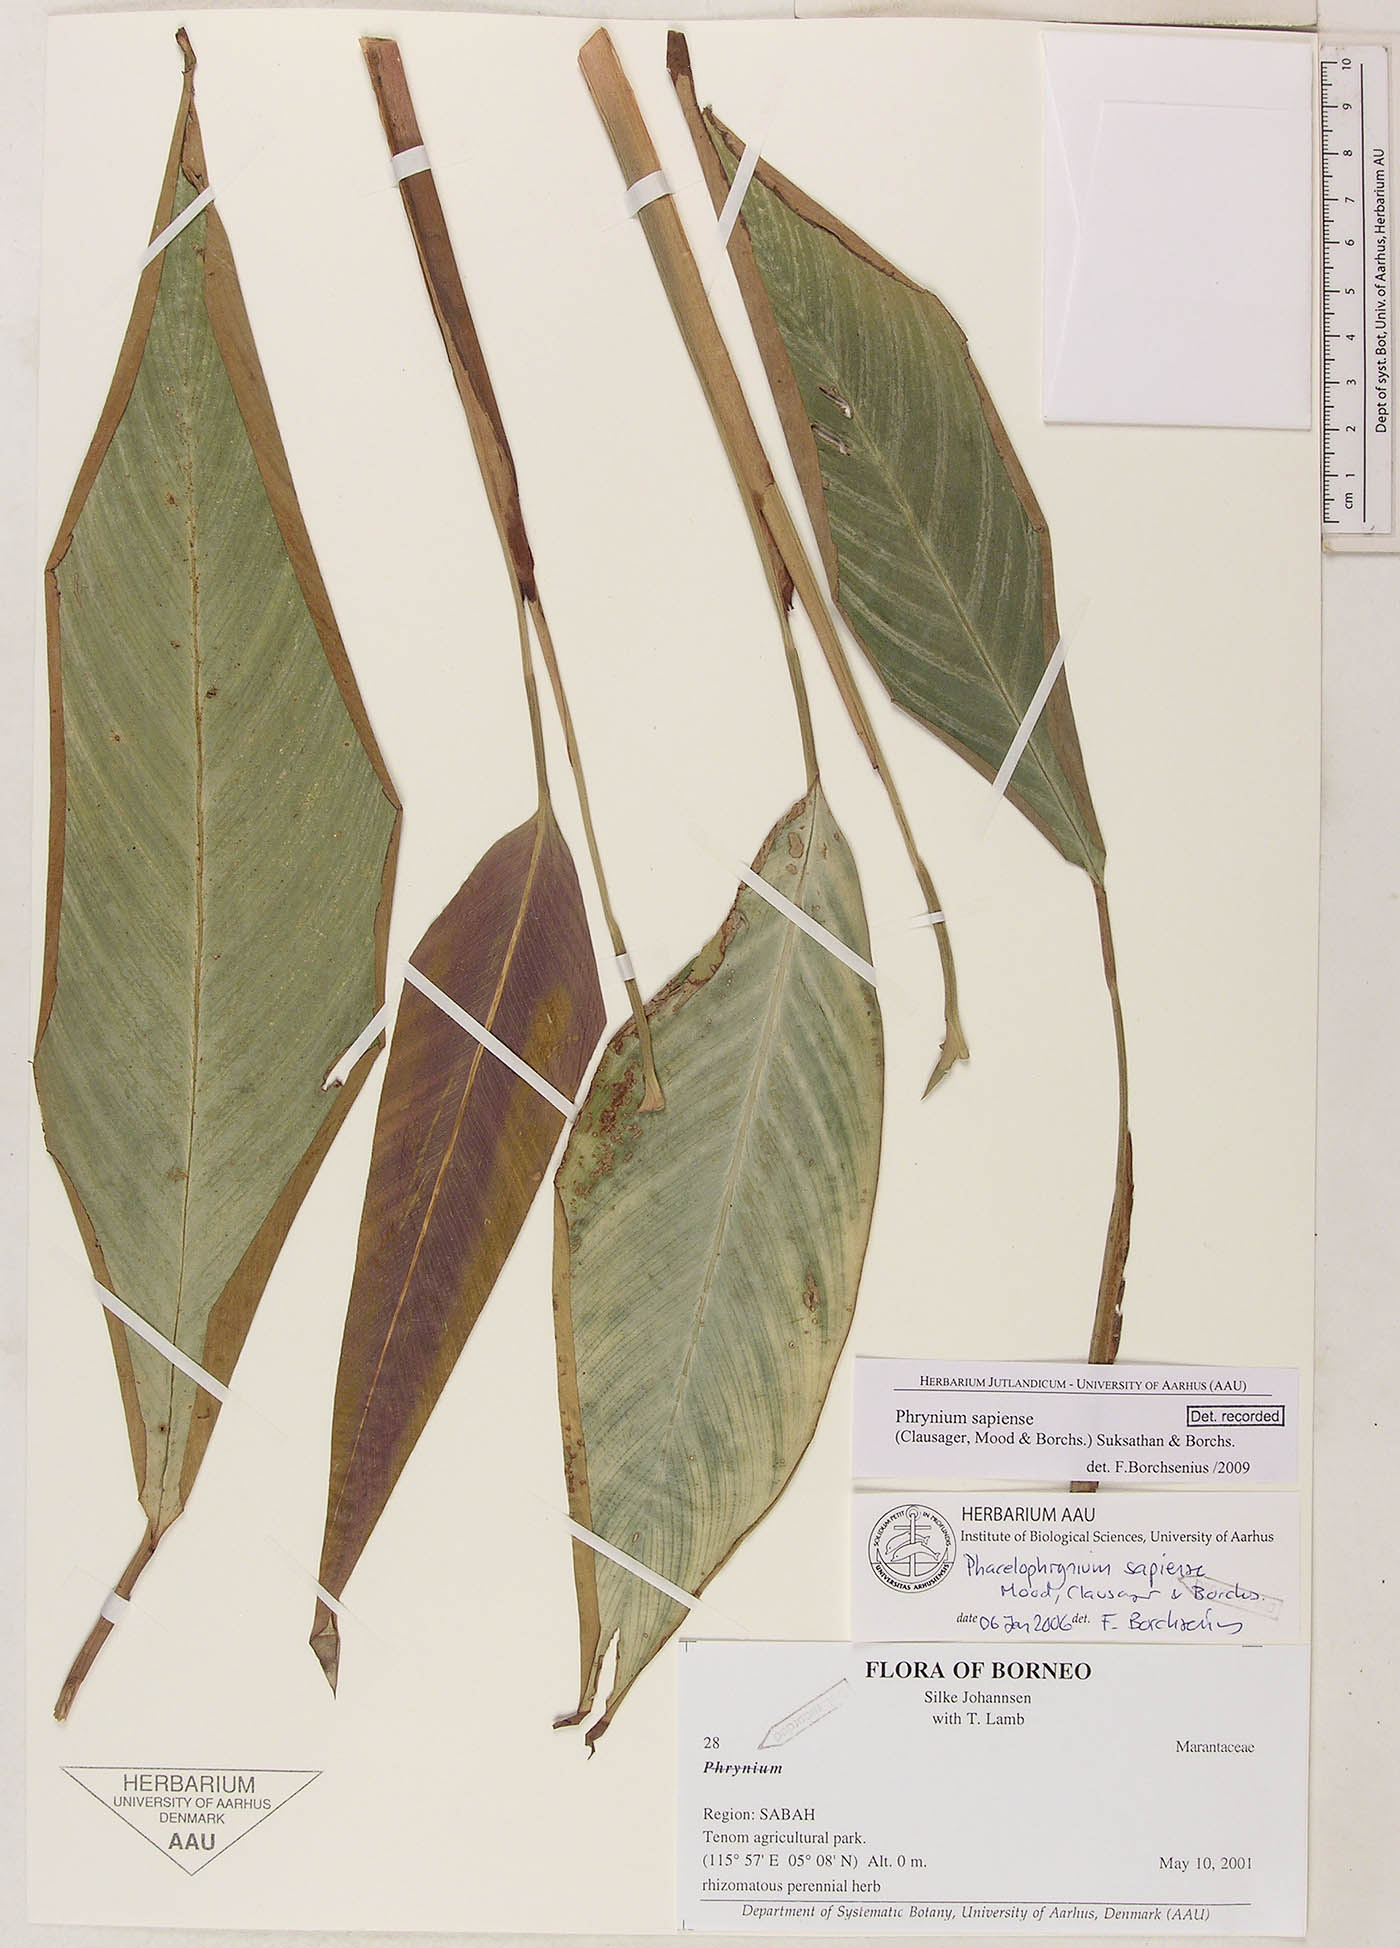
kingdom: Plantae
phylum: Tracheophyta
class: Liliopsida
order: Zingiberales
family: Marantaceae
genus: Phrynium
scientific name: Phrynium sapiense
